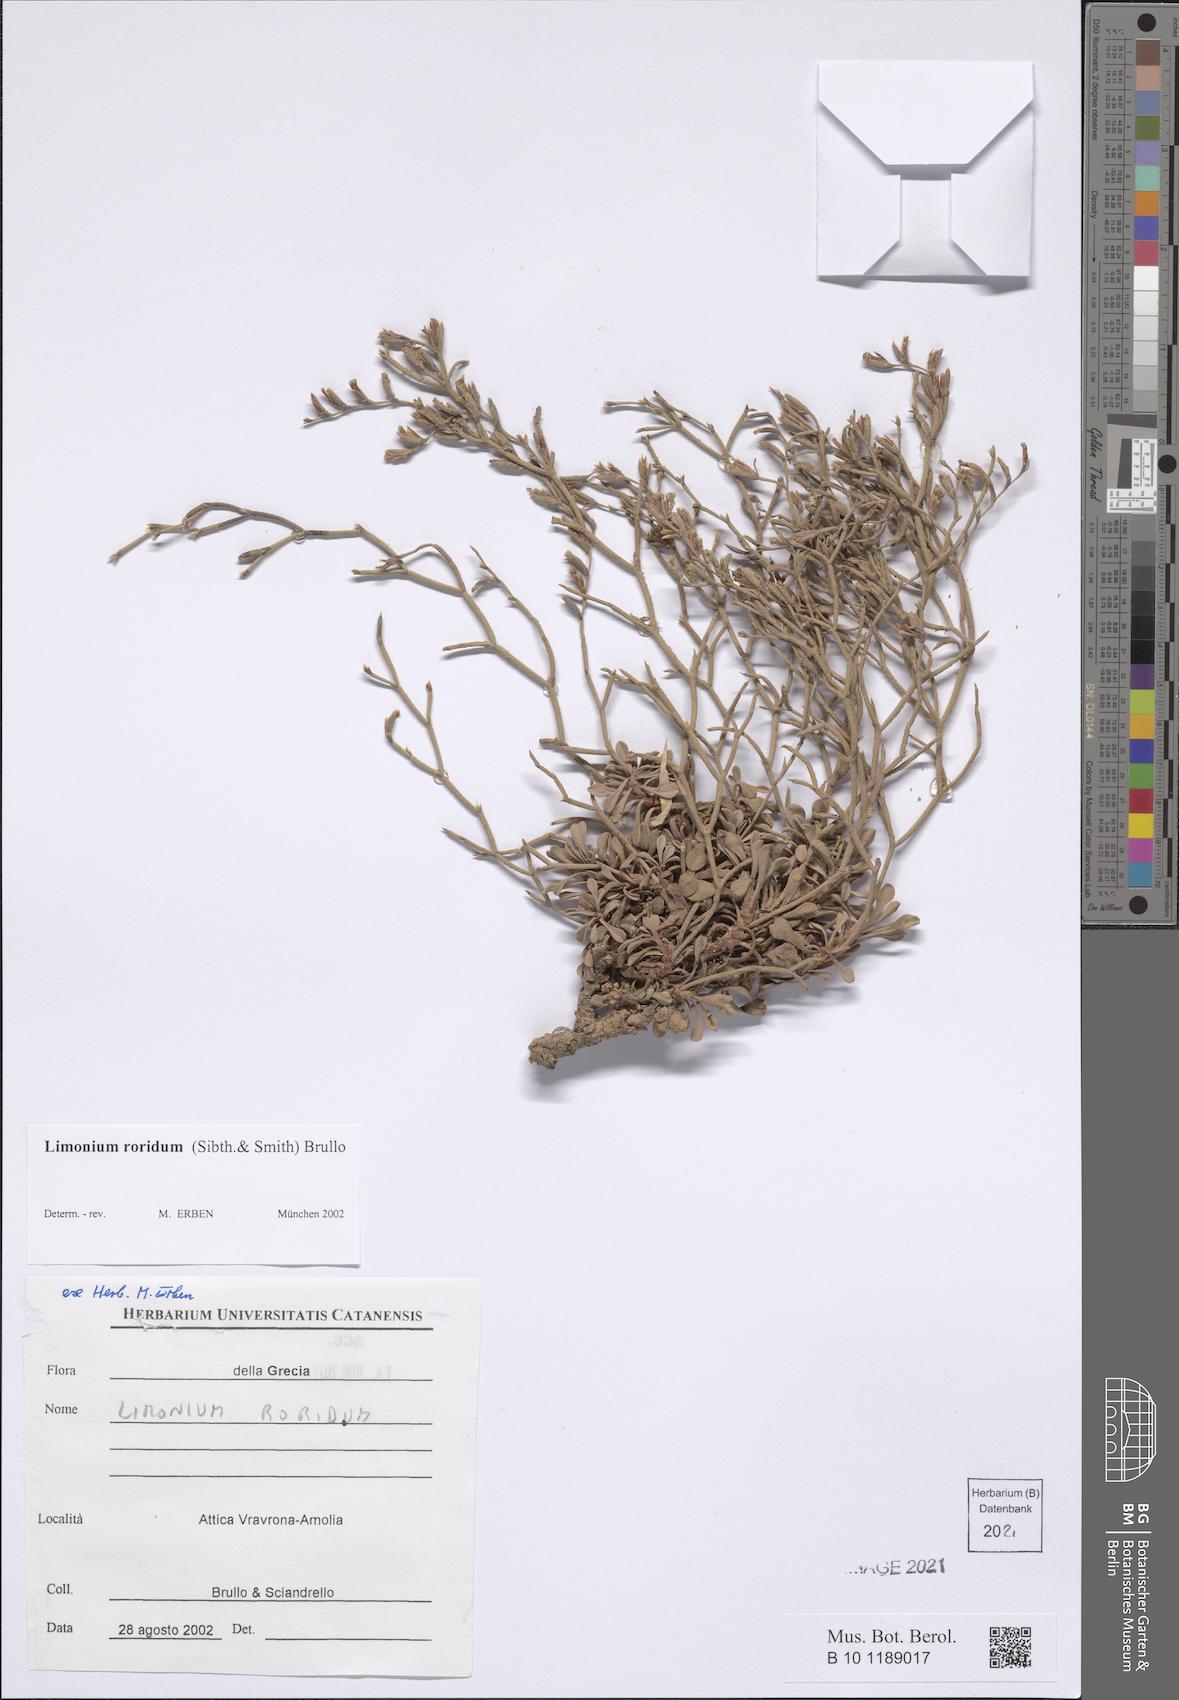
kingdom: Plantae
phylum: Tracheophyta
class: Magnoliopsida
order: Caryophyllales
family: Plumbaginaceae
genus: Limonium
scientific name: Limonium roridum
